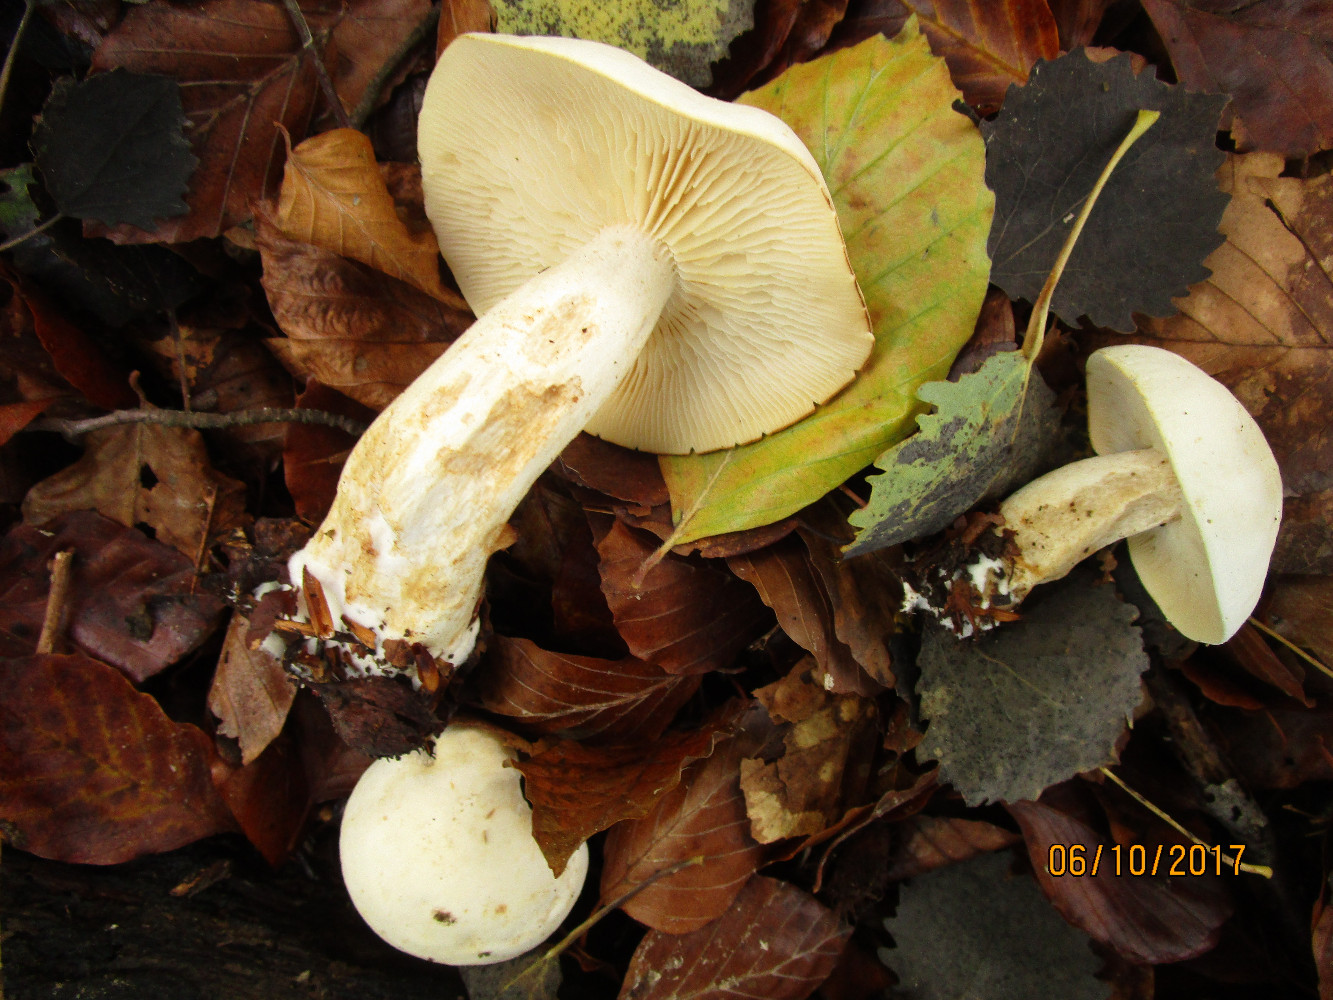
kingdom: Fungi
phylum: Basidiomycota
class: Agaricomycetes
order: Agaricales
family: Tricholomataceae
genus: Tricholoma
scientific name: Tricholoma stiparophyllum
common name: hvid ridderhat
